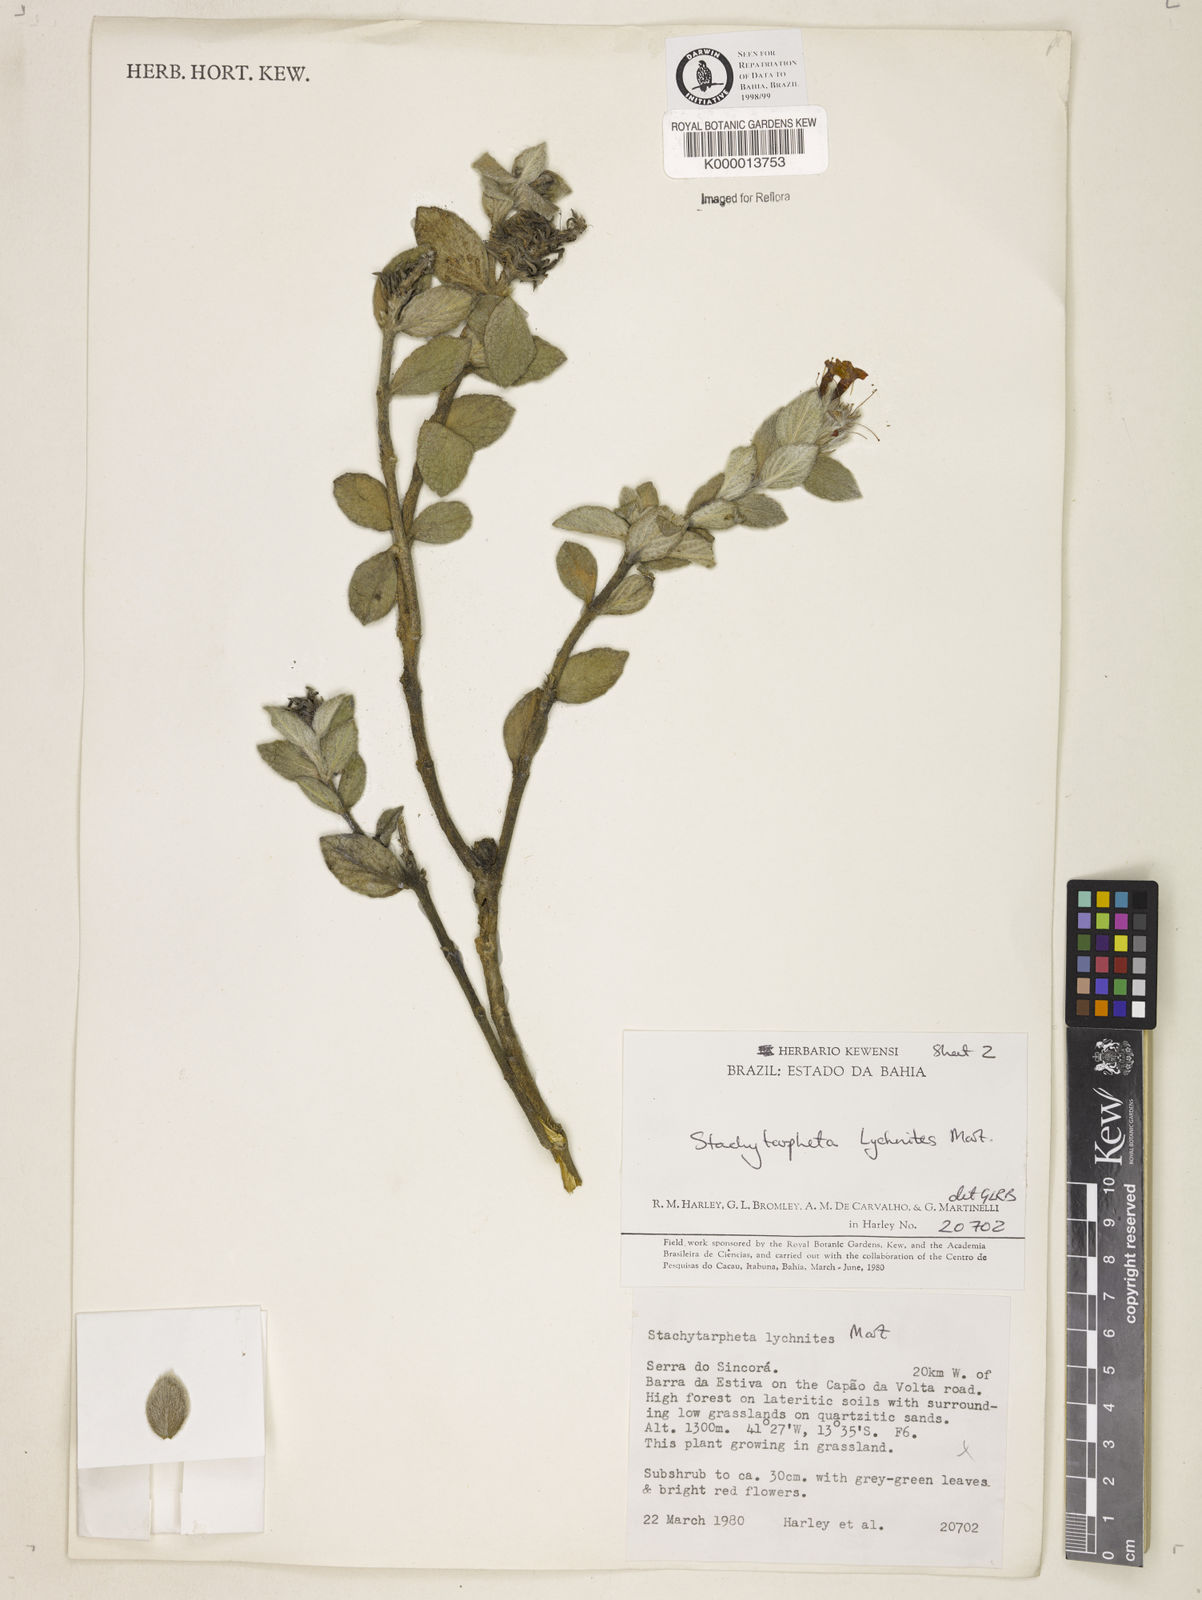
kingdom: Plantae
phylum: Tracheophyta
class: Magnoliopsida
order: Lamiales
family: Verbenaceae
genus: Stachytarpheta
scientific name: Stachytarpheta
